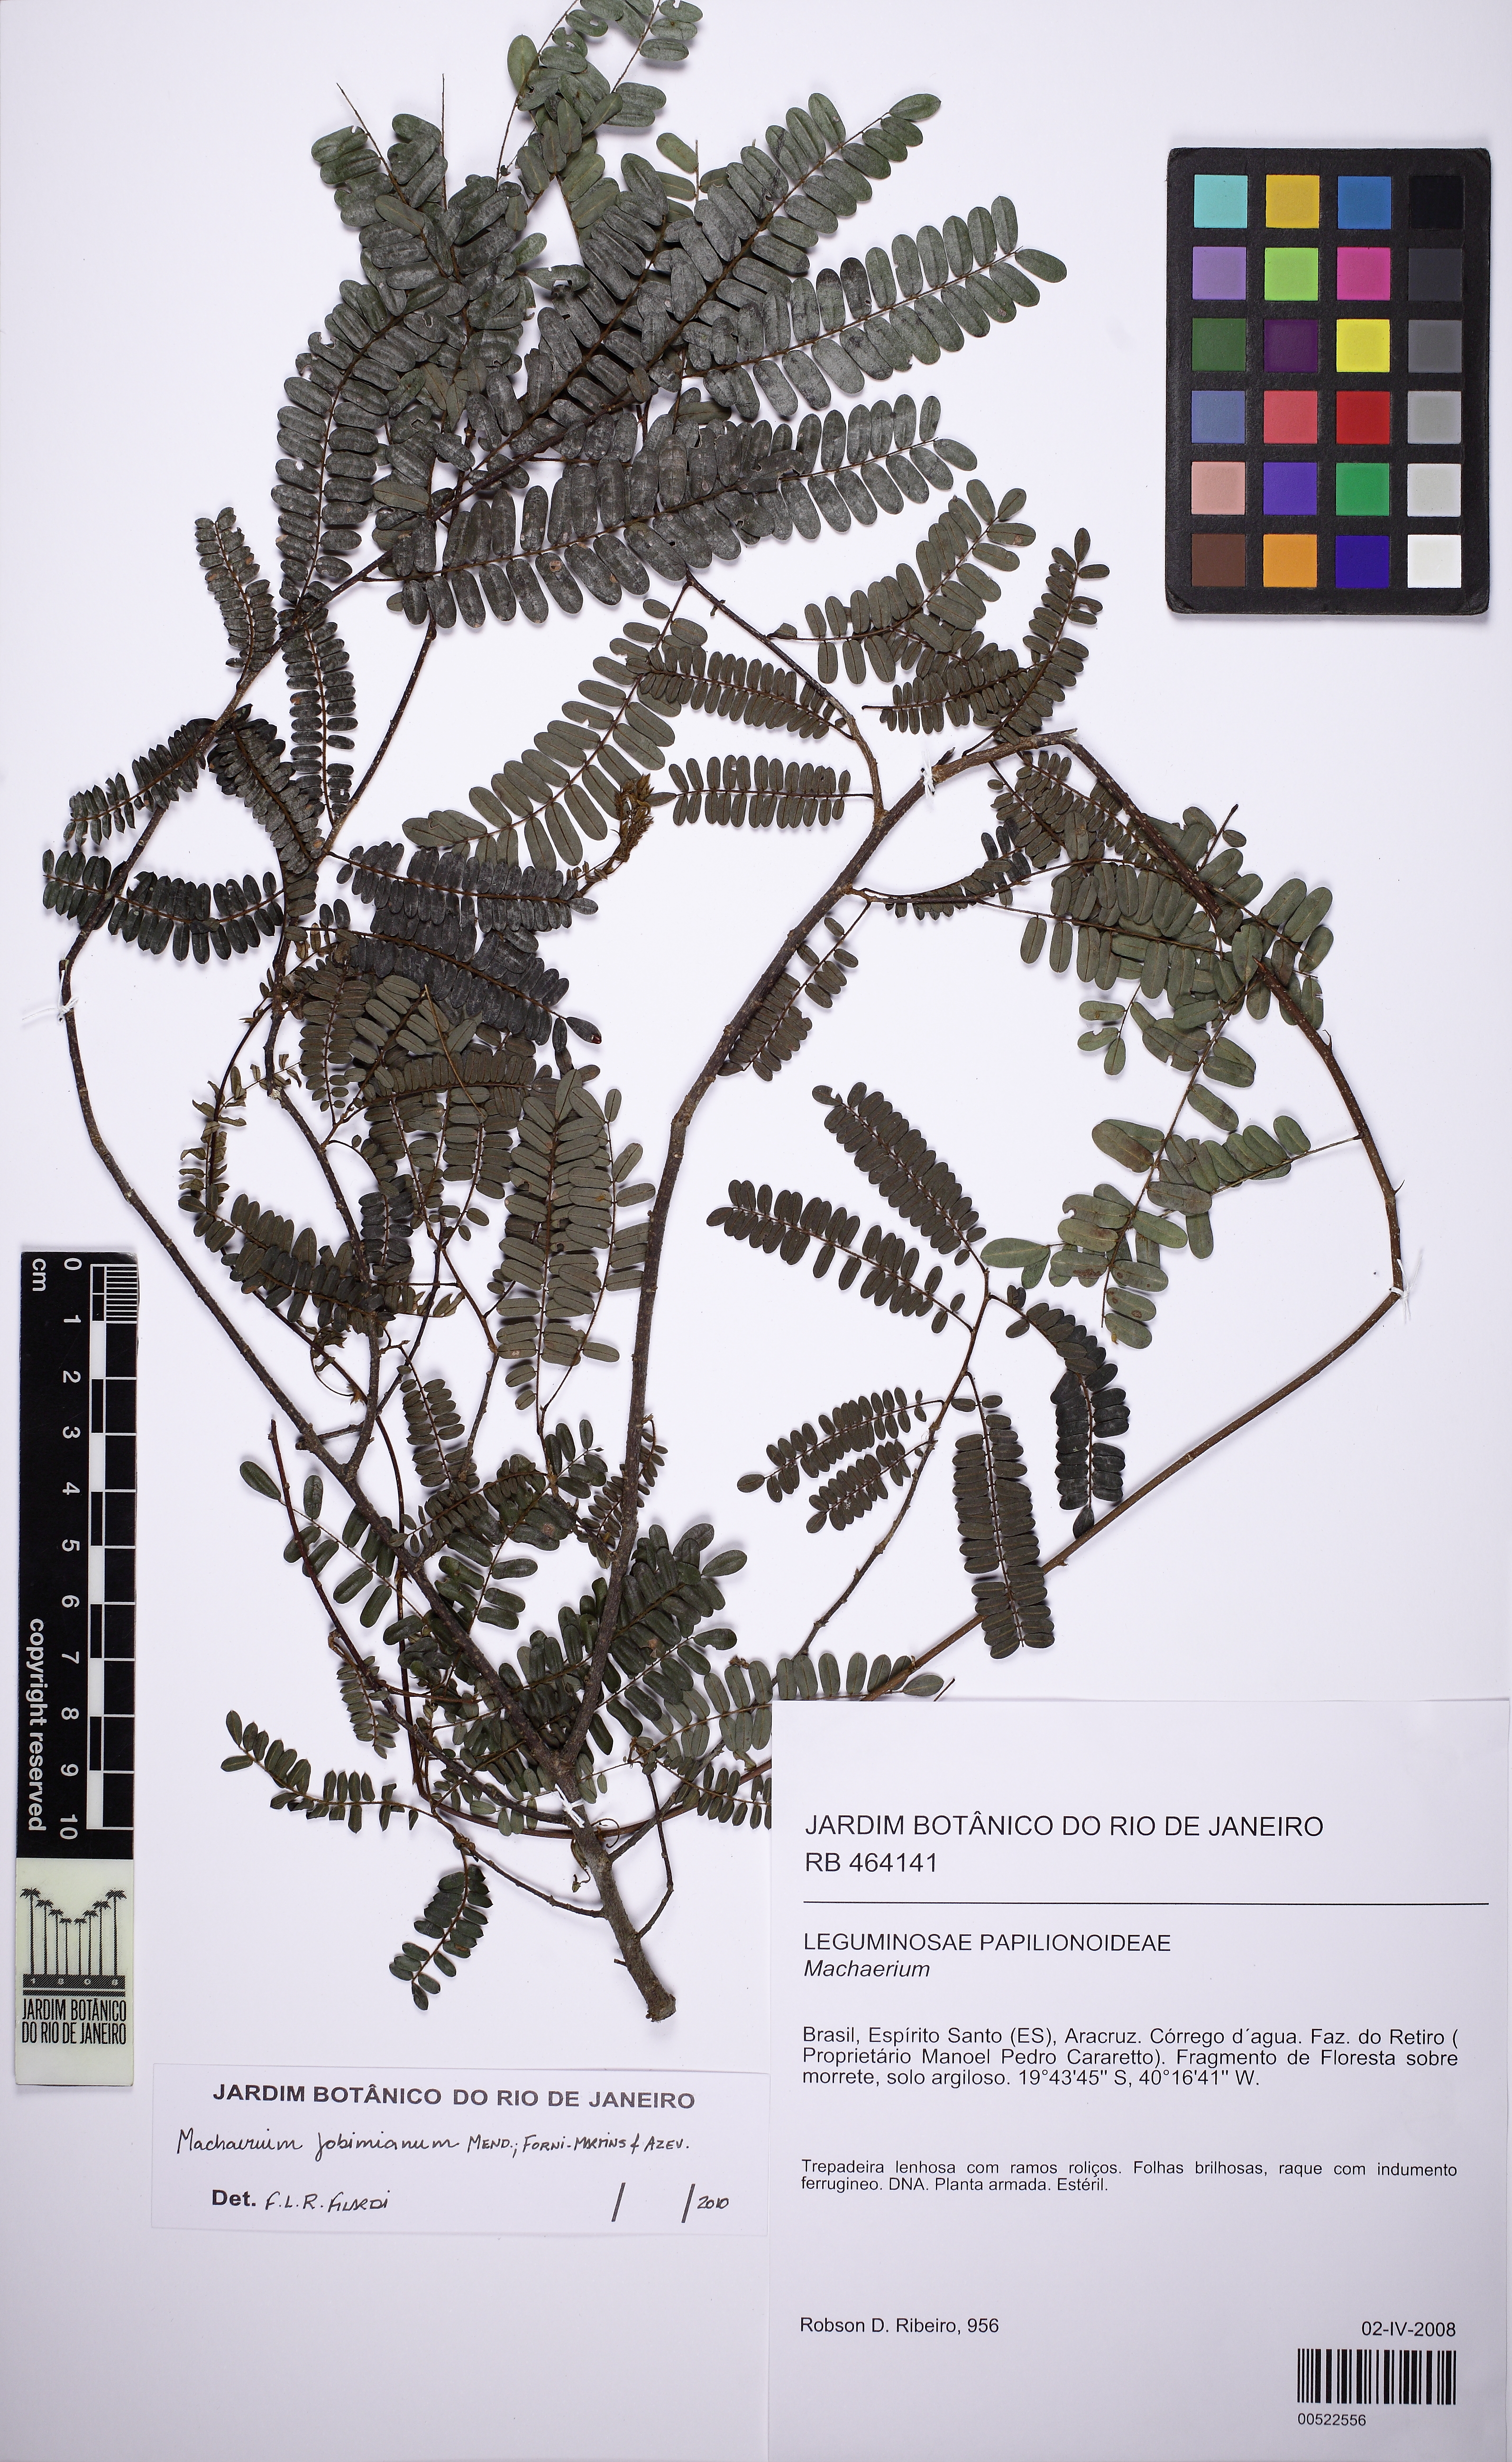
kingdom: Plantae
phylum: Tracheophyta
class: Magnoliopsida
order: Fabales
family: Fabaceae
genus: Machaerium
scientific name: Machaerium jobimianum
